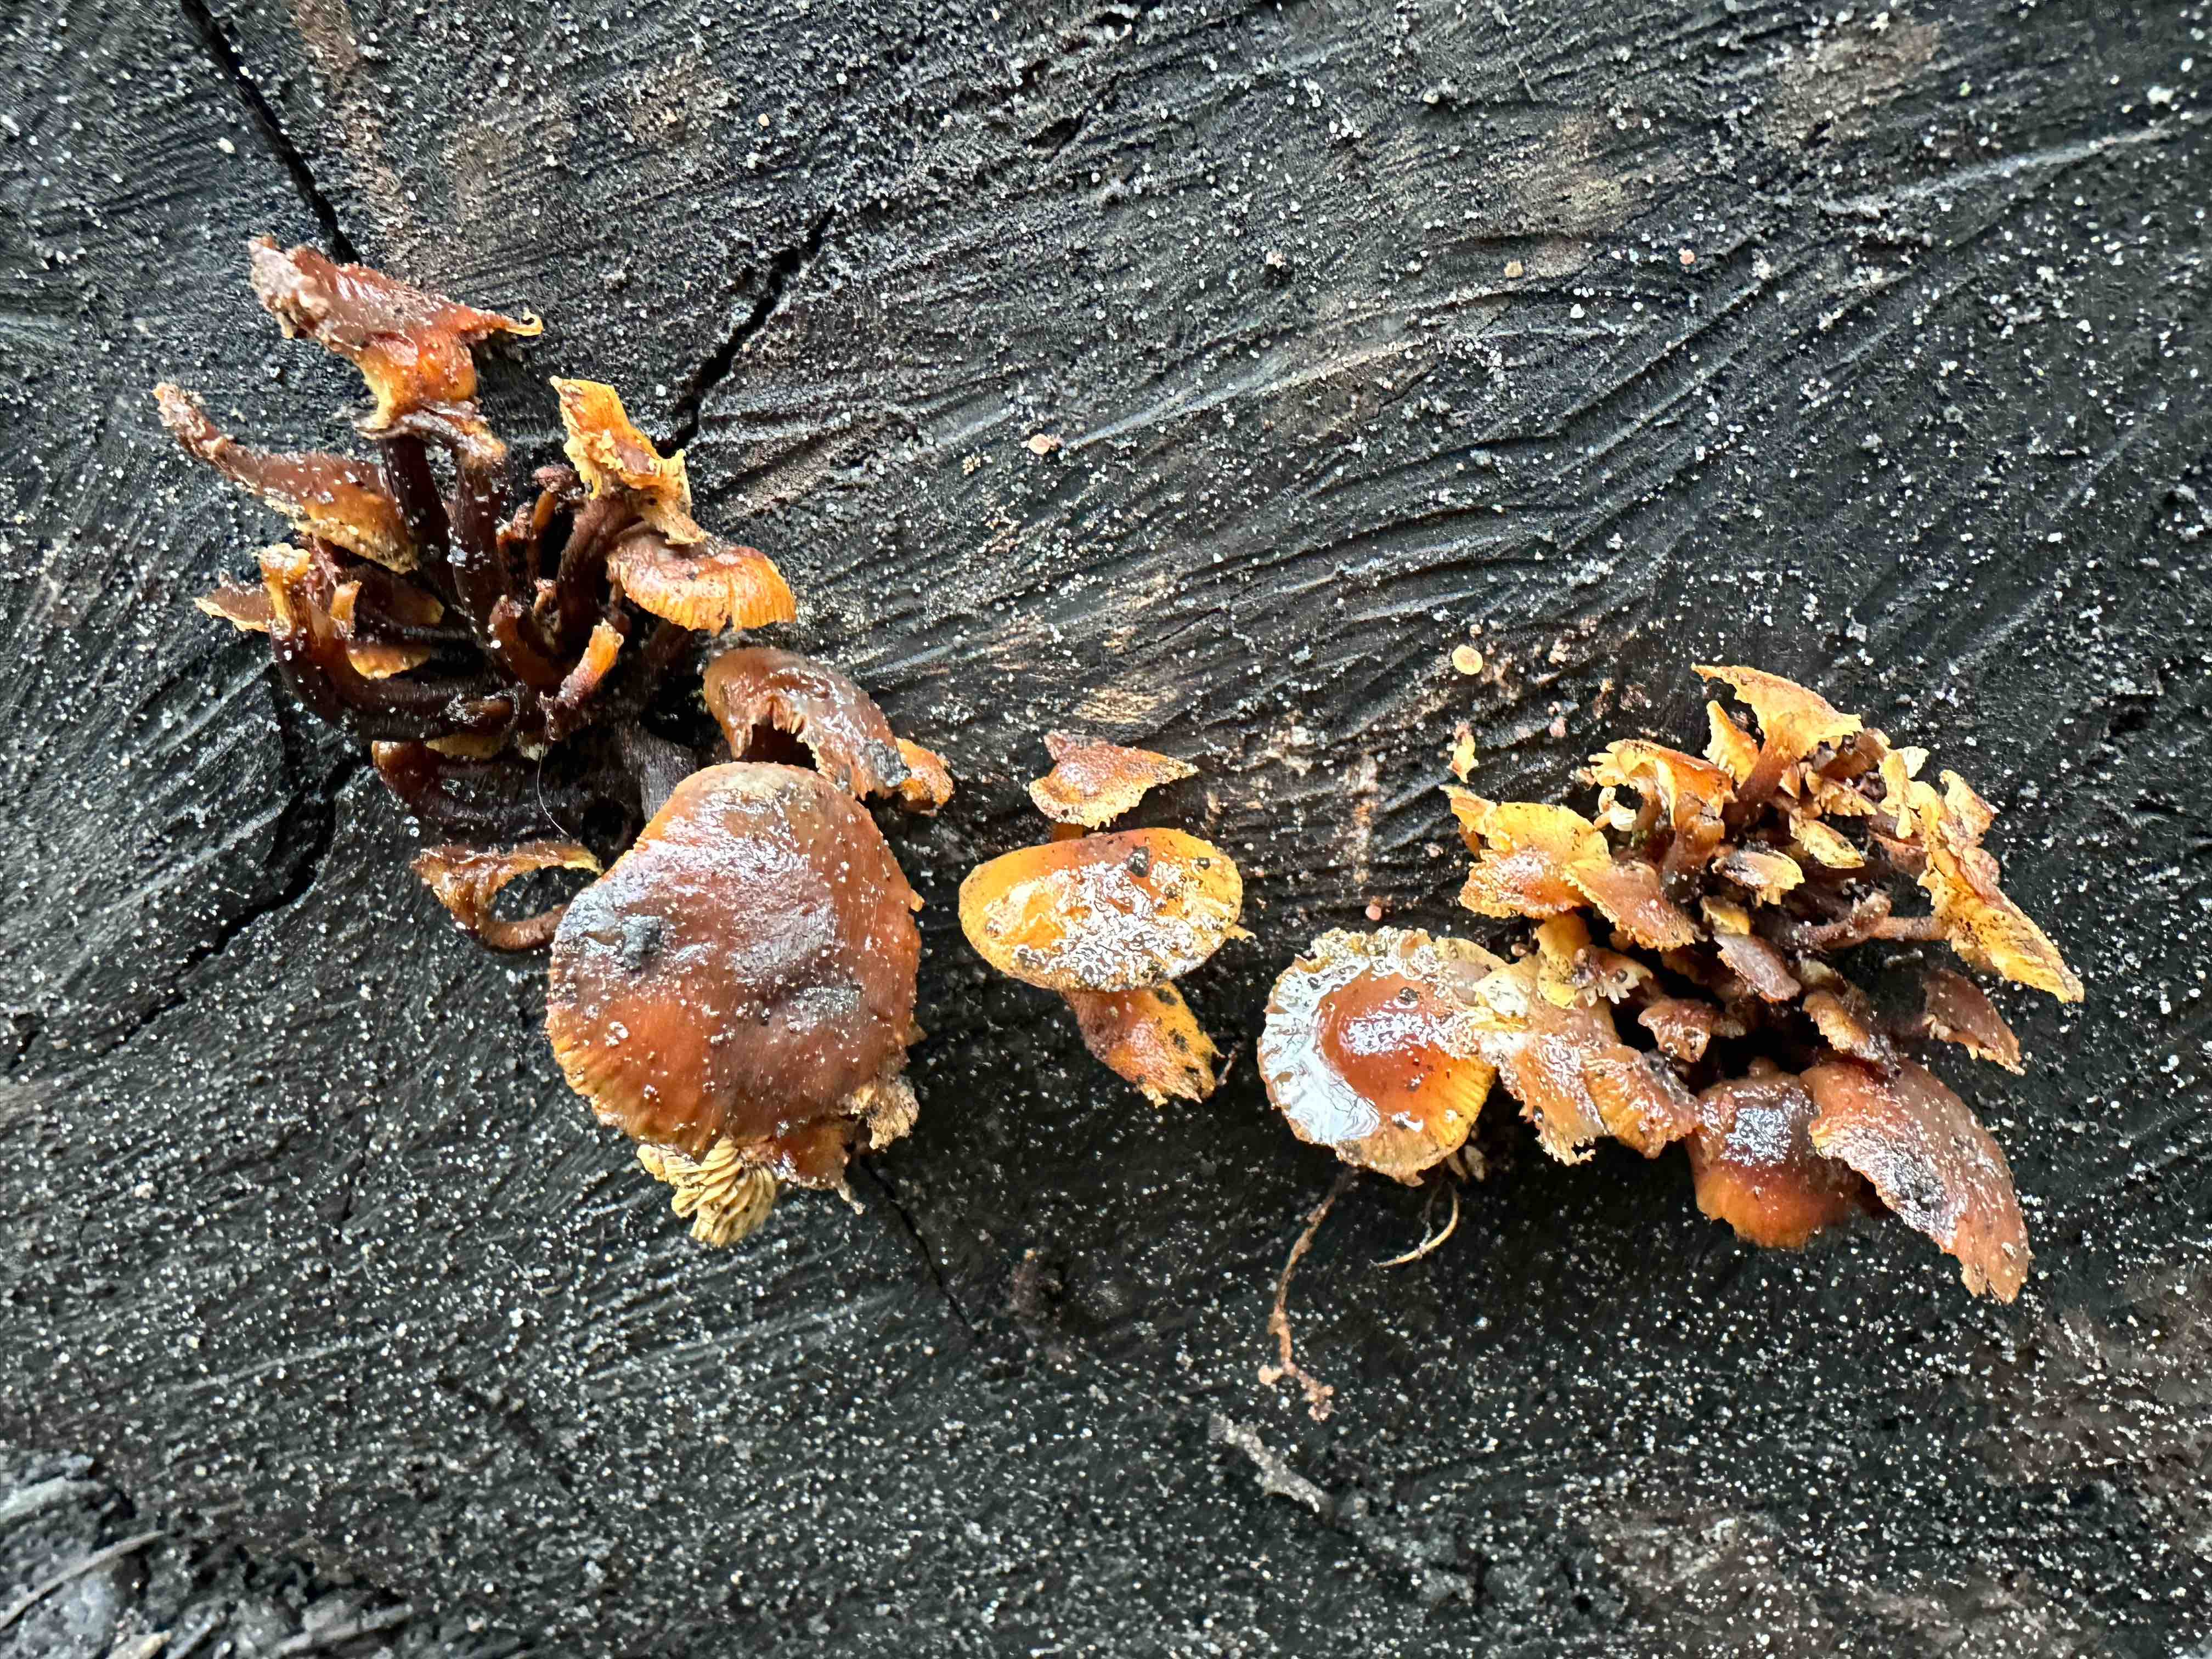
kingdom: Fungi
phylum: Basidiomycota
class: Agaricomycetes
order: Agaricales
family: Physalacriaceae
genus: Flammulina
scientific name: Flammulina velutipes
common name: gul fløjlsfod
